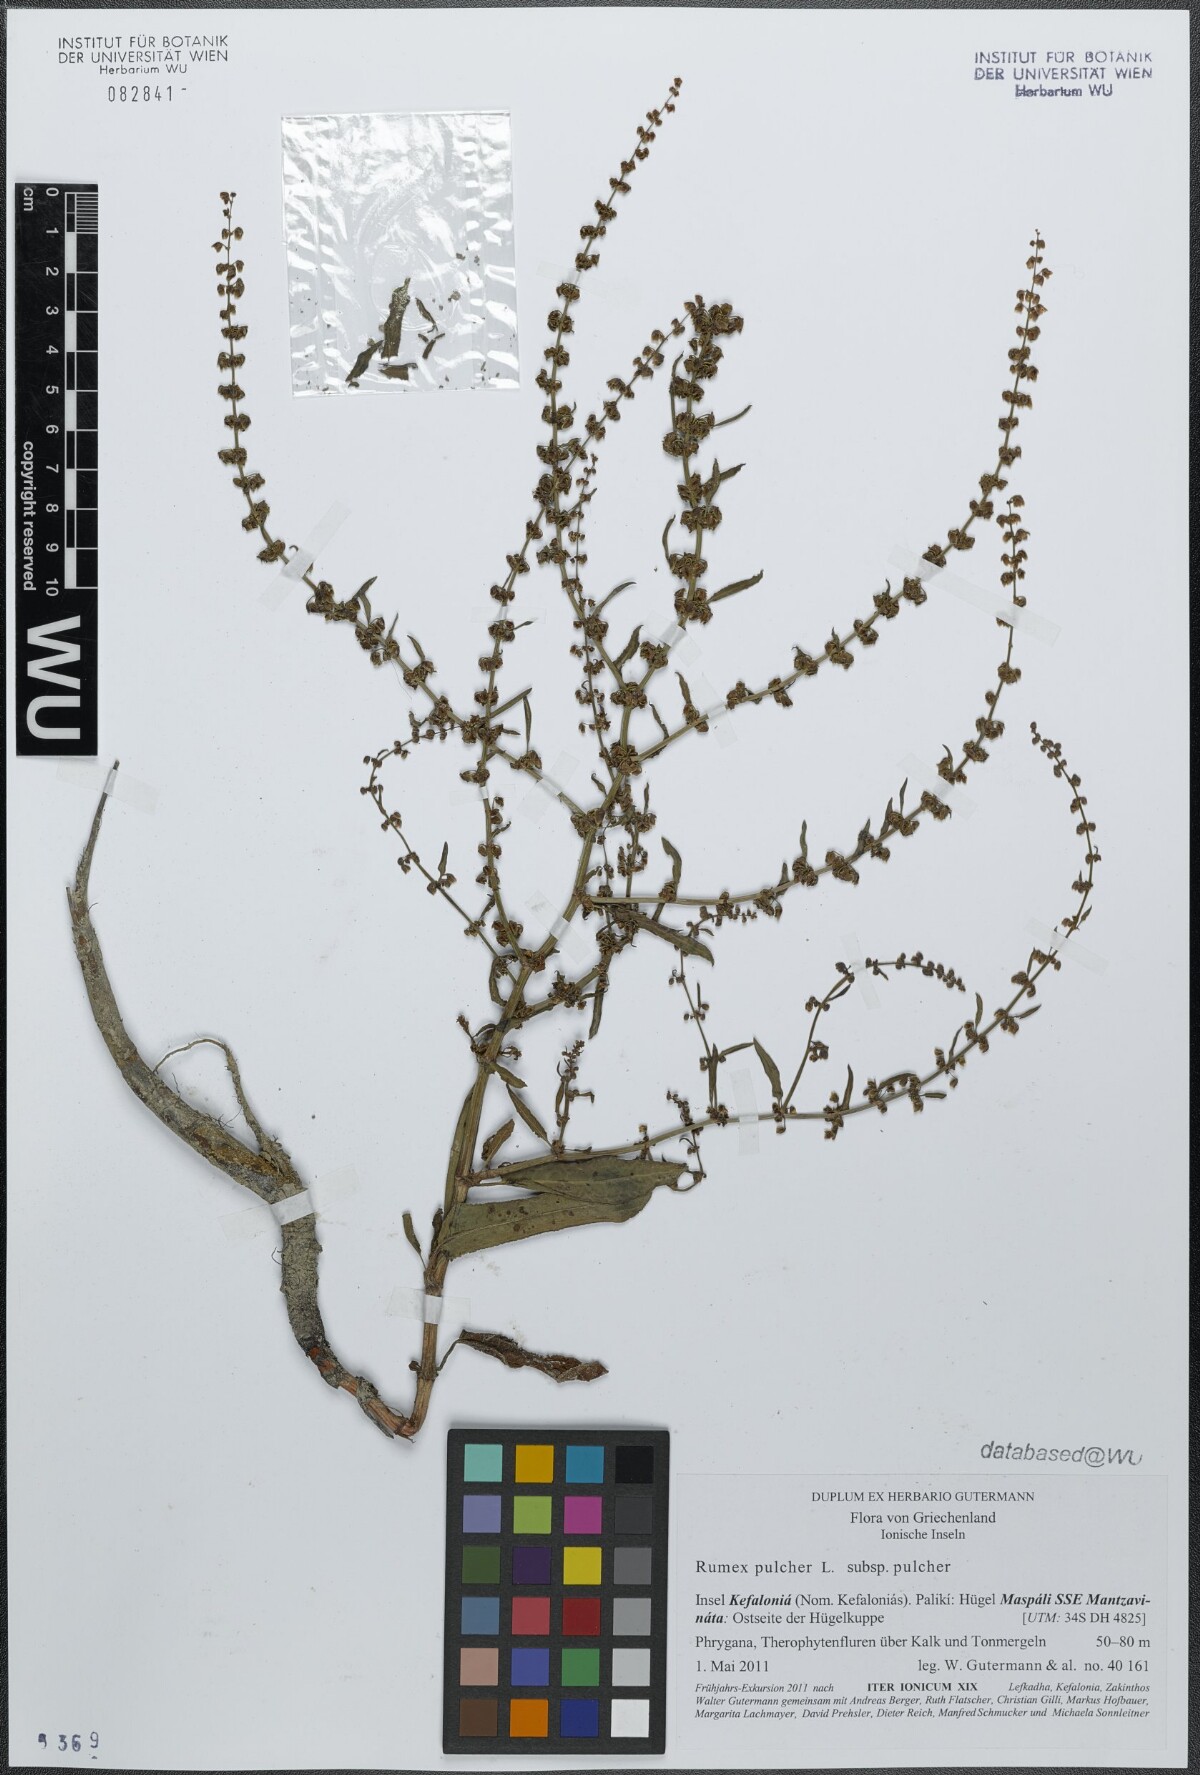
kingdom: Plantae
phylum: Tracheophyta
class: Magnoliopsida
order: Caryophyllales
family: Polygonaceae
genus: Rumex
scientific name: Rumex pulcher
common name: Fiddle dock
